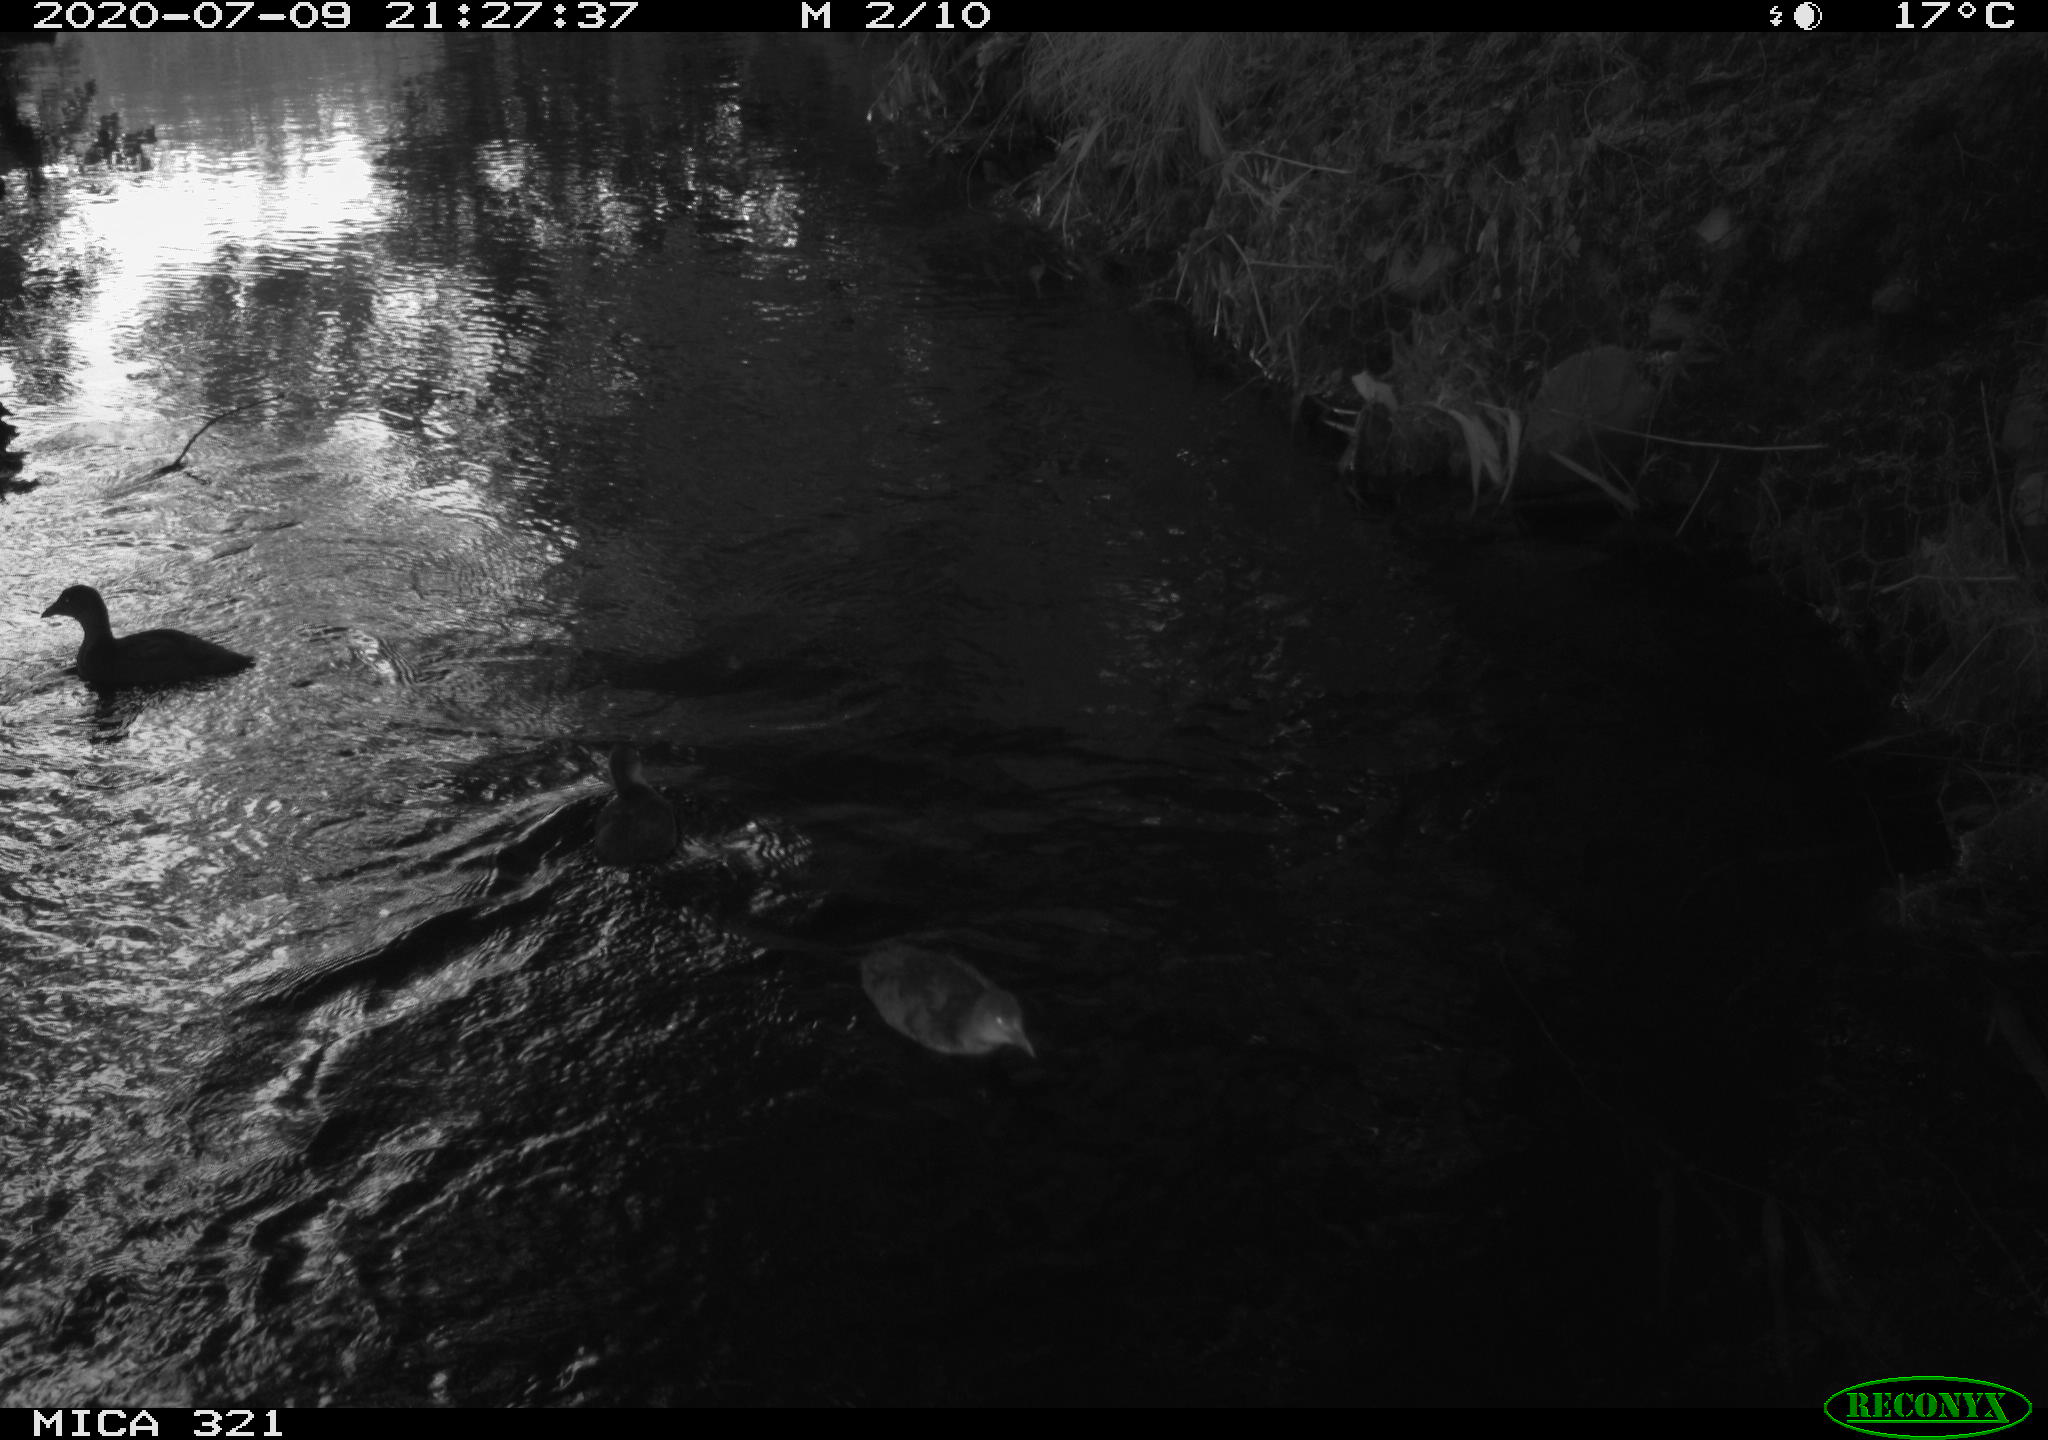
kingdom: Animalia
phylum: Chordata
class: Aves
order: Gruiformes
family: Rallidae
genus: Gallinula
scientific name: Gallinula chloropus
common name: Common moorhen
